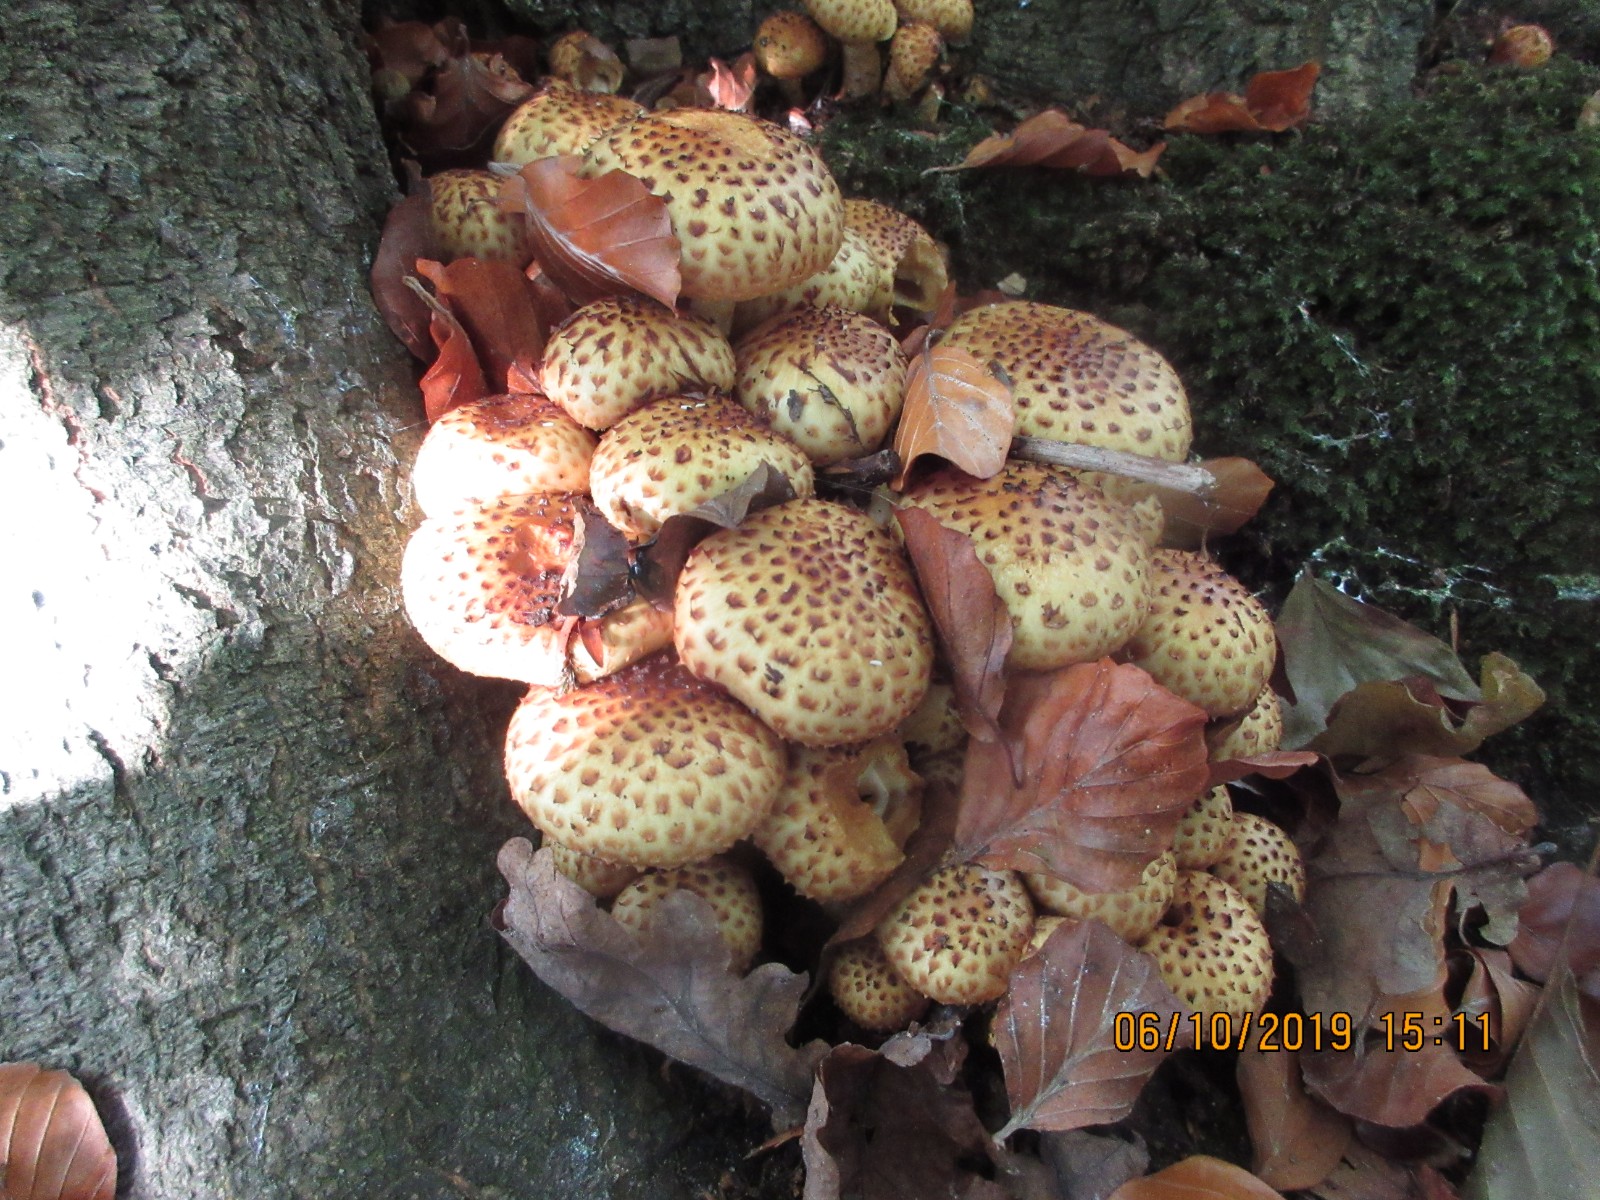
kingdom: Fungi
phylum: Basidiomycota
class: Agaricomycetes
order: Agaricales
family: Strophariaceae
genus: Pholiota
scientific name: Pholiota jahnii
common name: slimet skælhat
